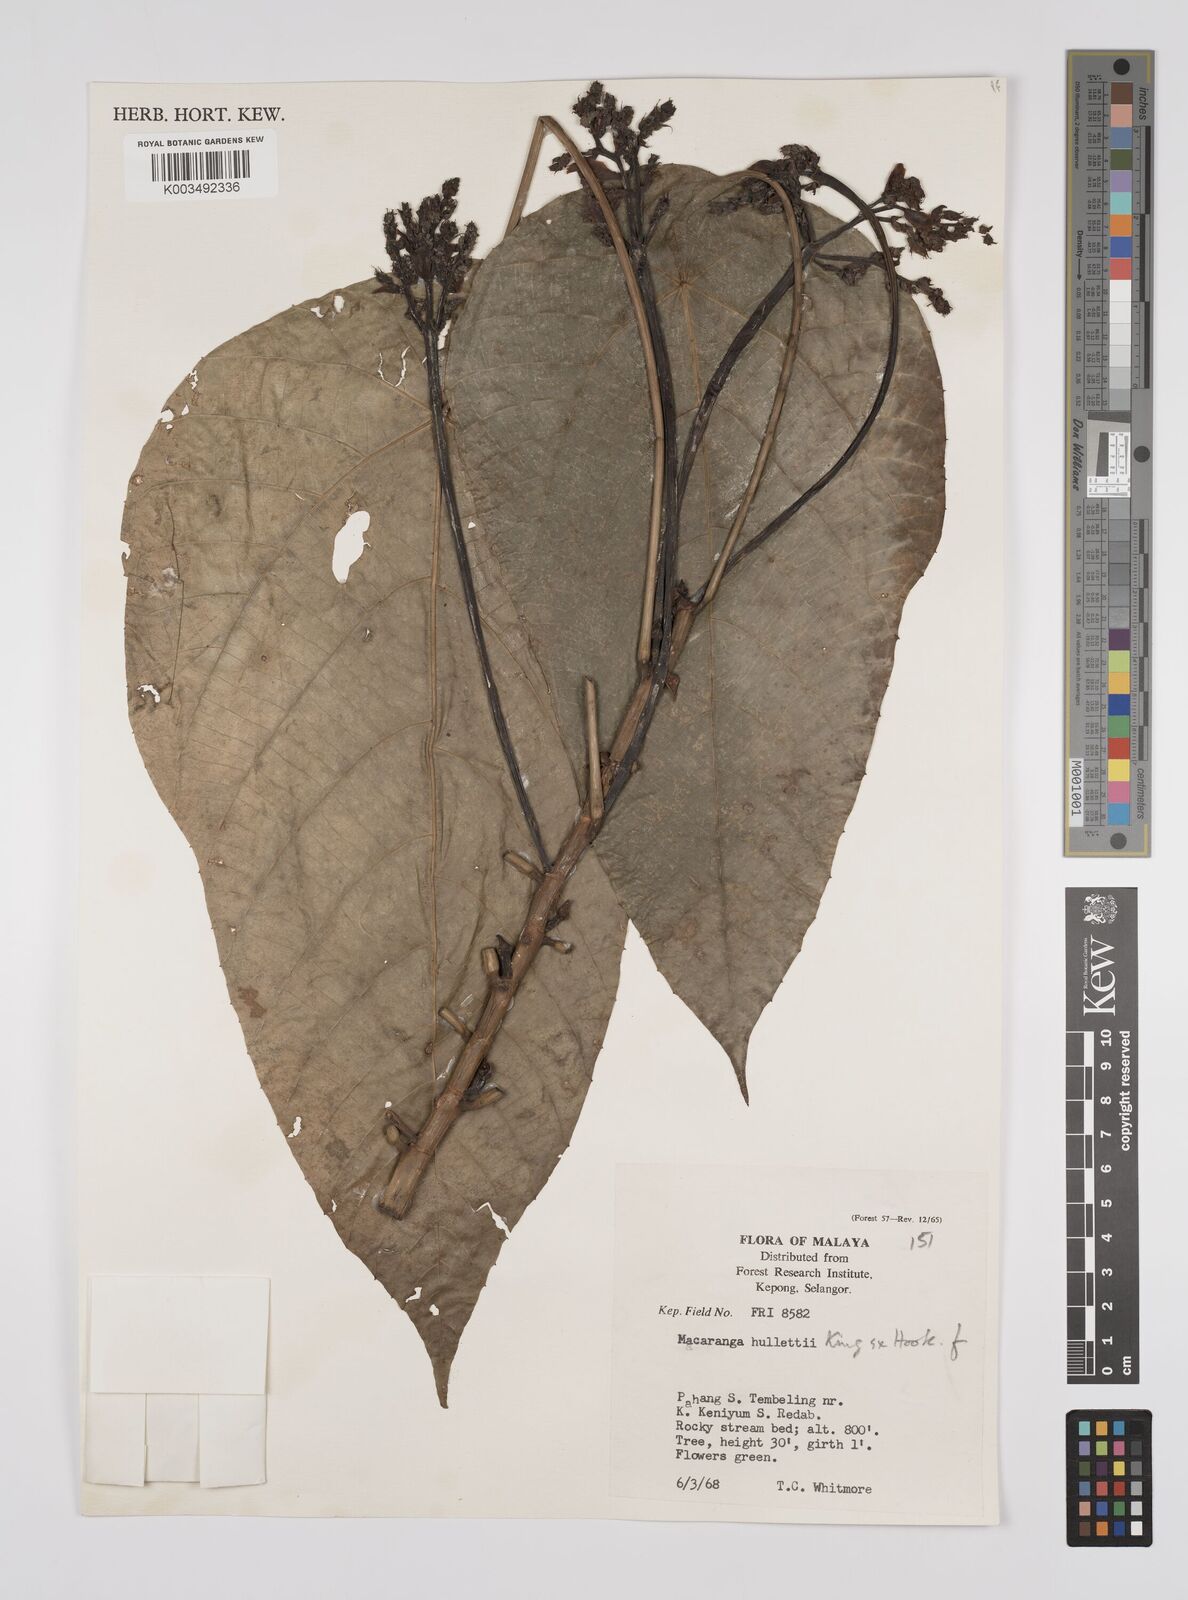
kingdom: Plantae
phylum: Tracheophyta
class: Magnoliopsida
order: Malpighiales
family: Euphorbiaceae
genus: Macaranga
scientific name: Macaranga hullettii
